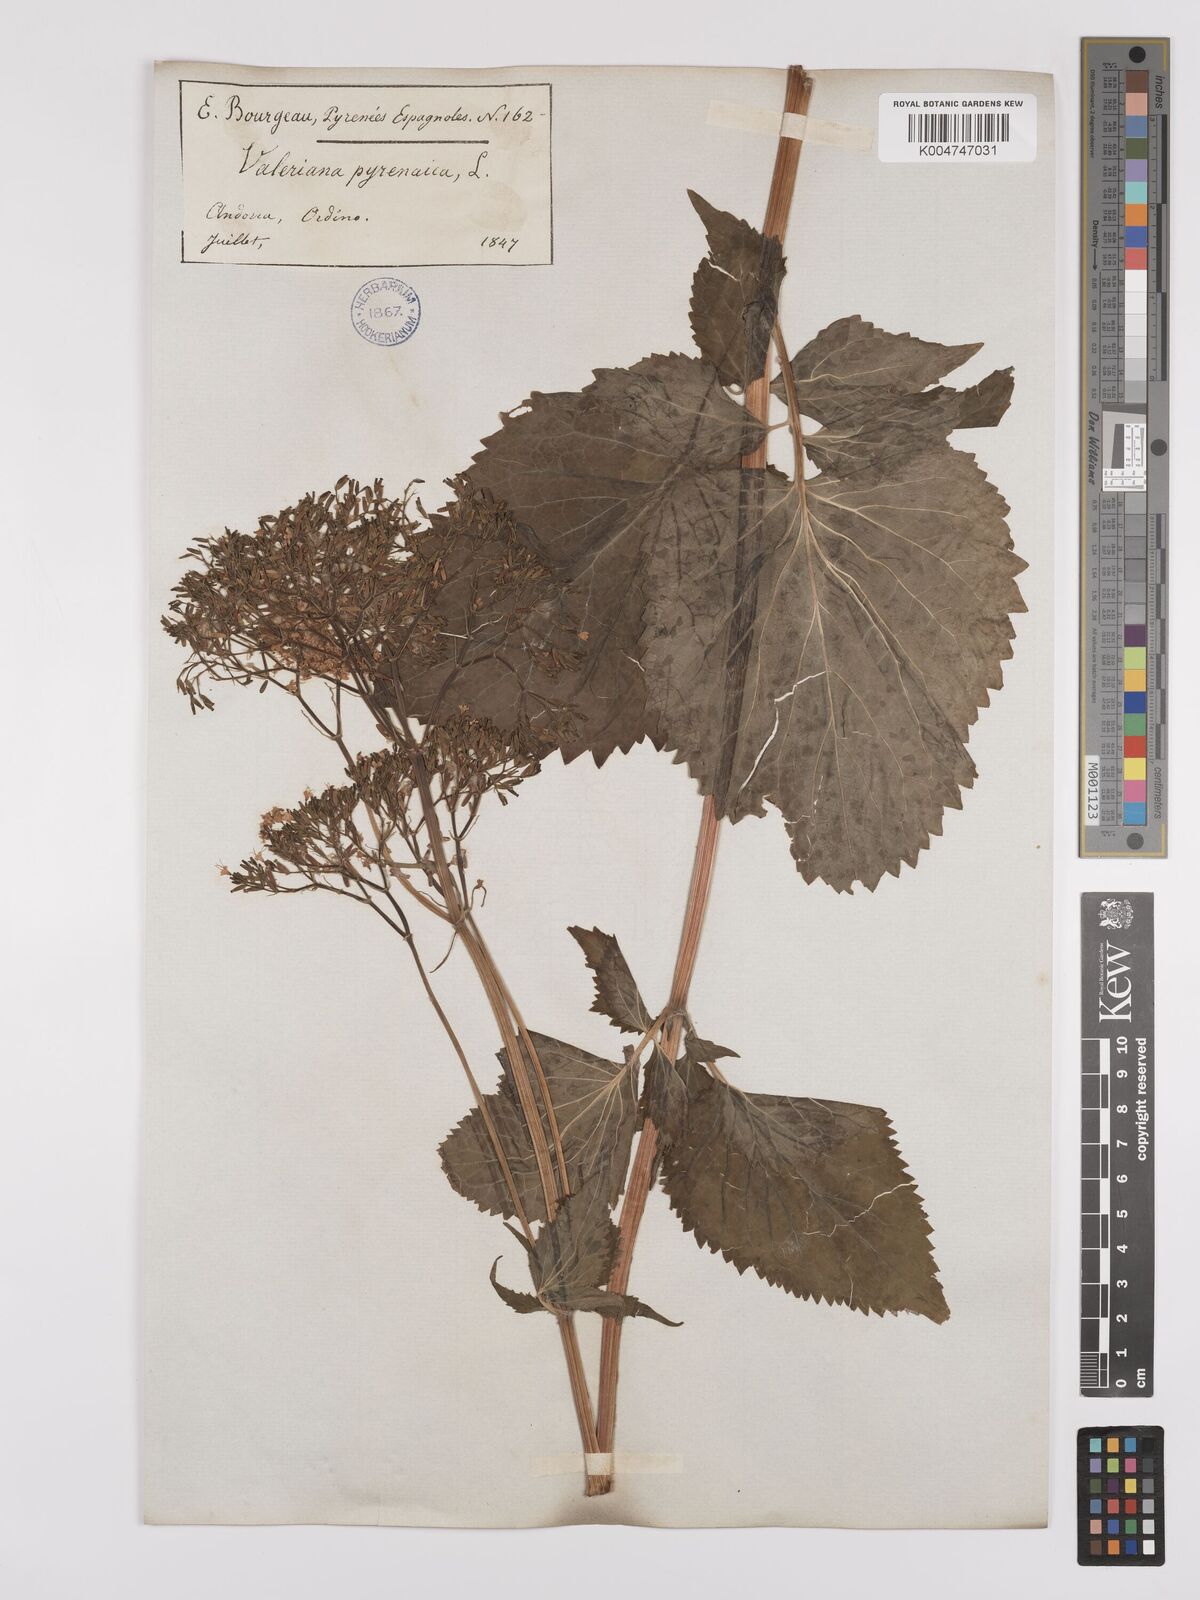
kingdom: Plantae
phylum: Tracheophyta
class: Magnoliopsida
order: Dipsacales
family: Caprifoliaceae
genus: Valeriana
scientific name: Valeriana pyrenaica
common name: Pyrenean valerian
